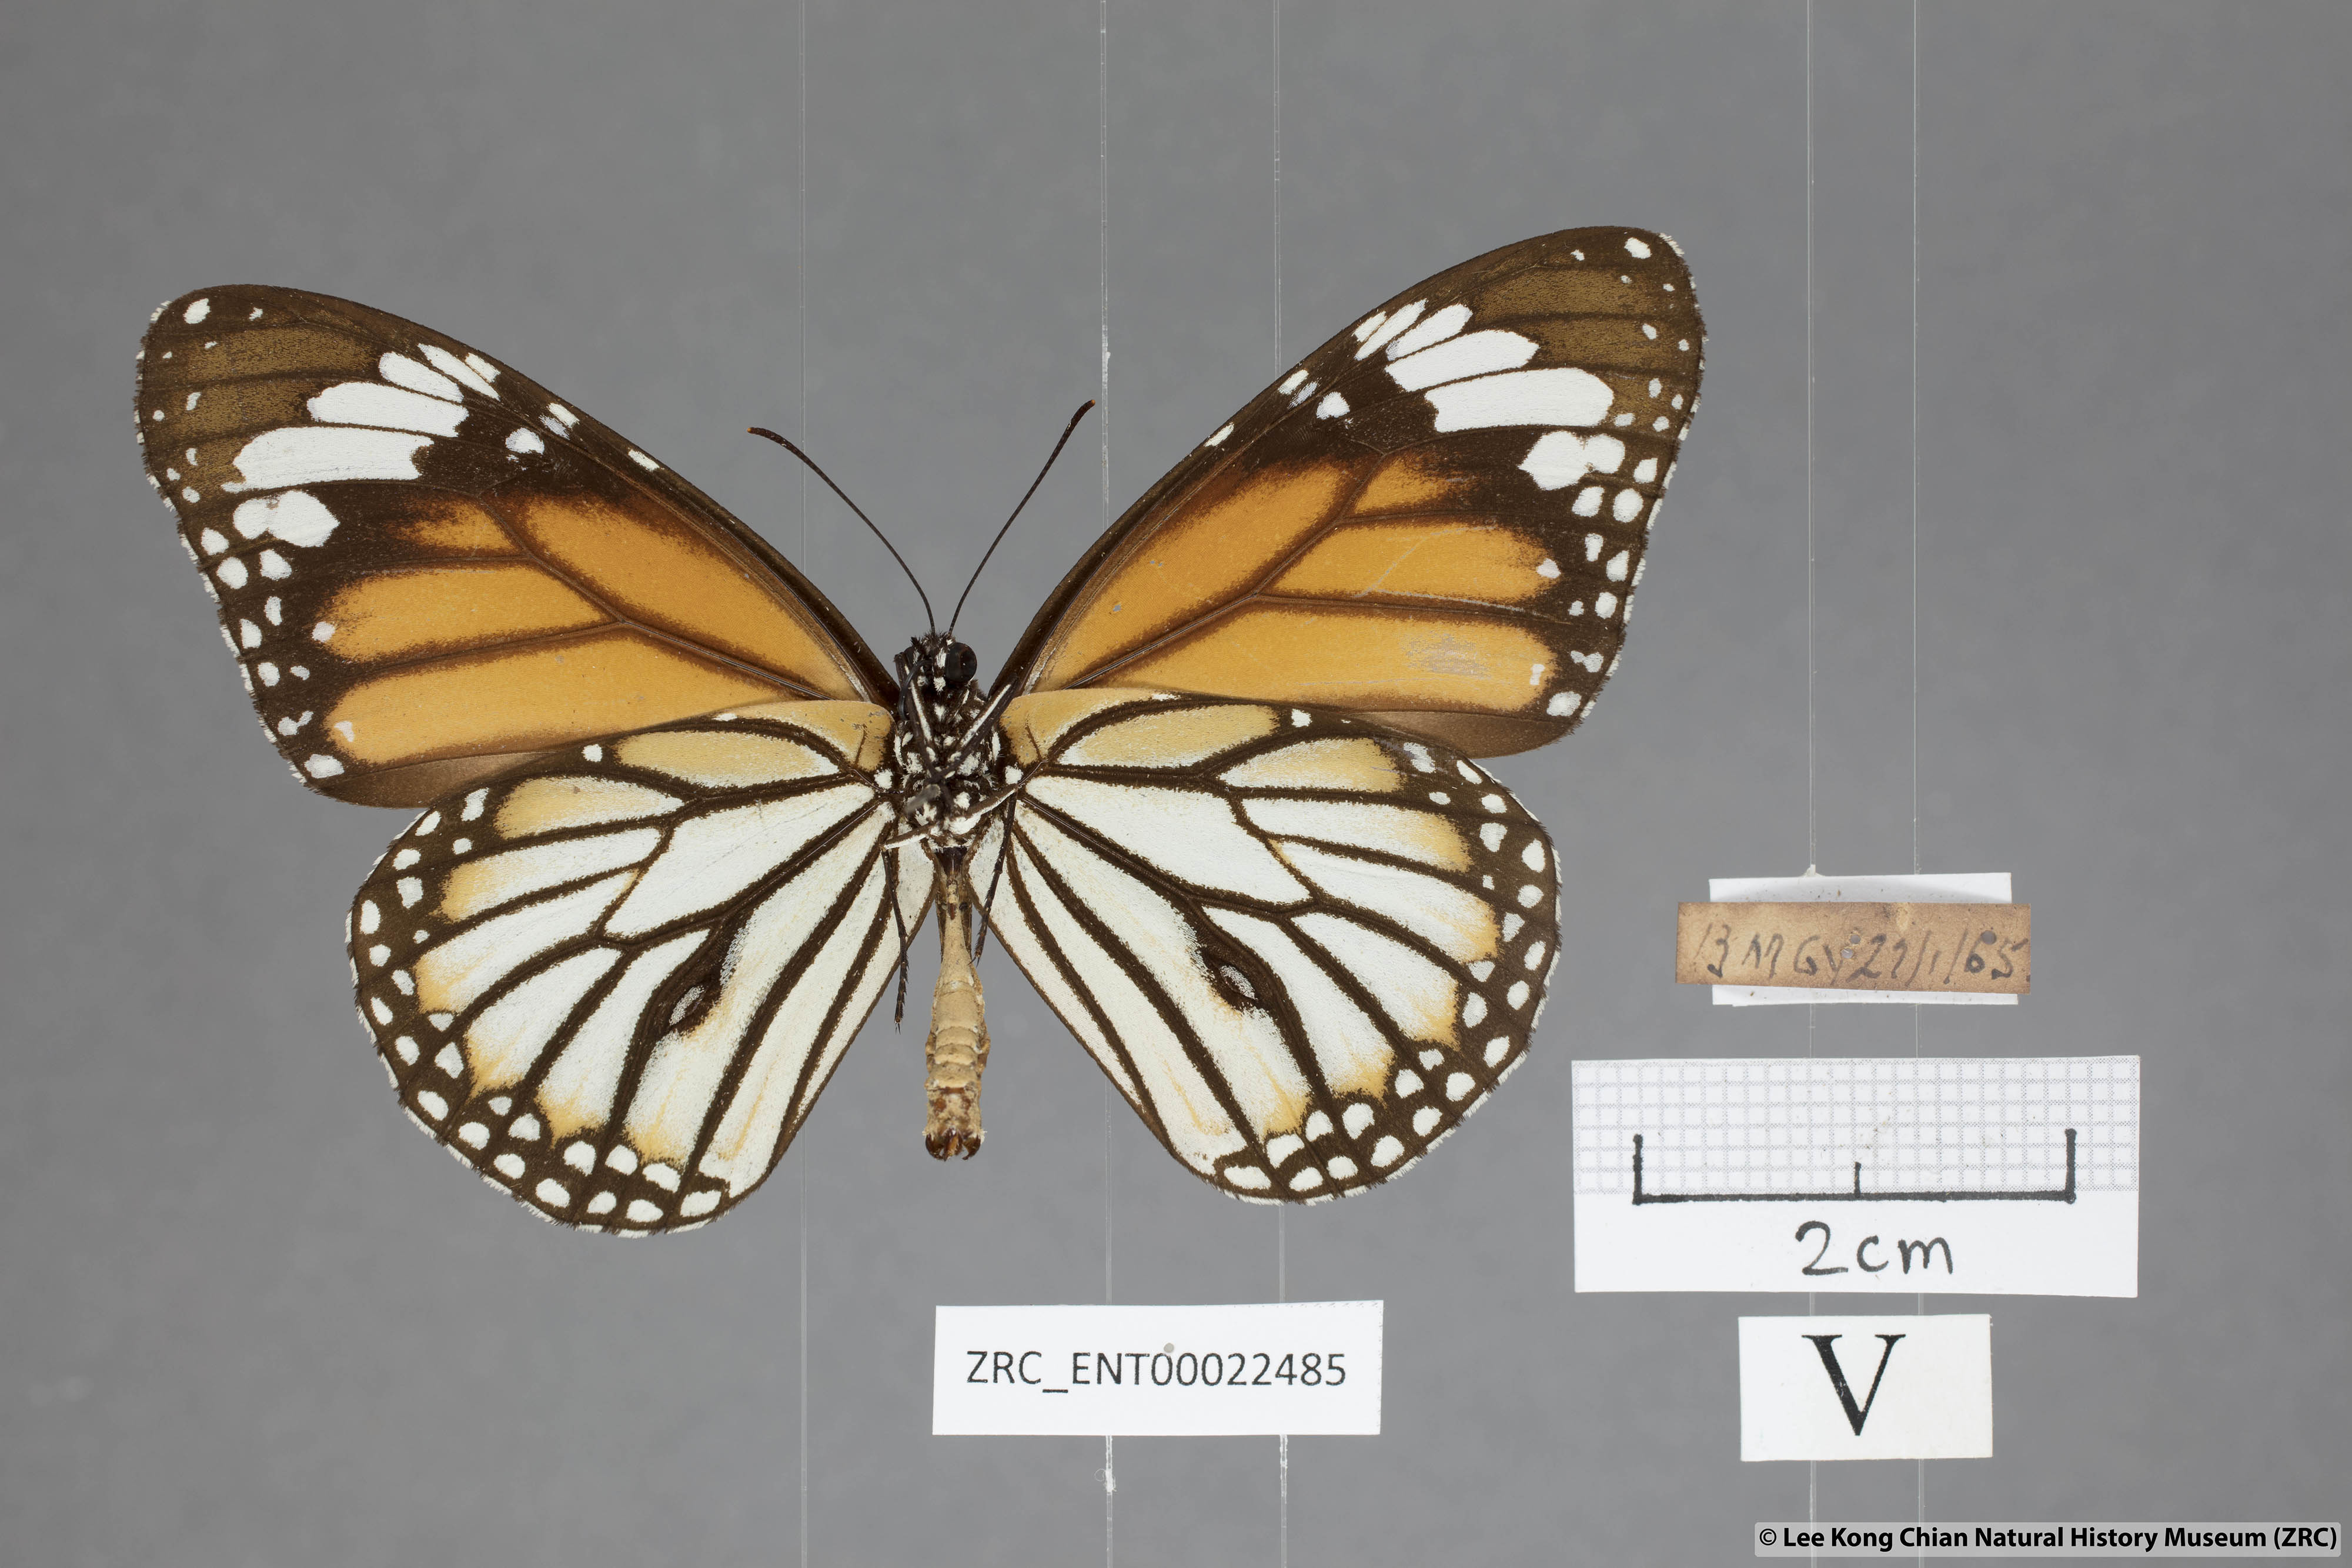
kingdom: Animalia
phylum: Arthropoda
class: Insecta
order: Lepidoptera
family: Nymphalidae
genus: Danaus
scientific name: Danaus genutia
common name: Common tiger butterfly
